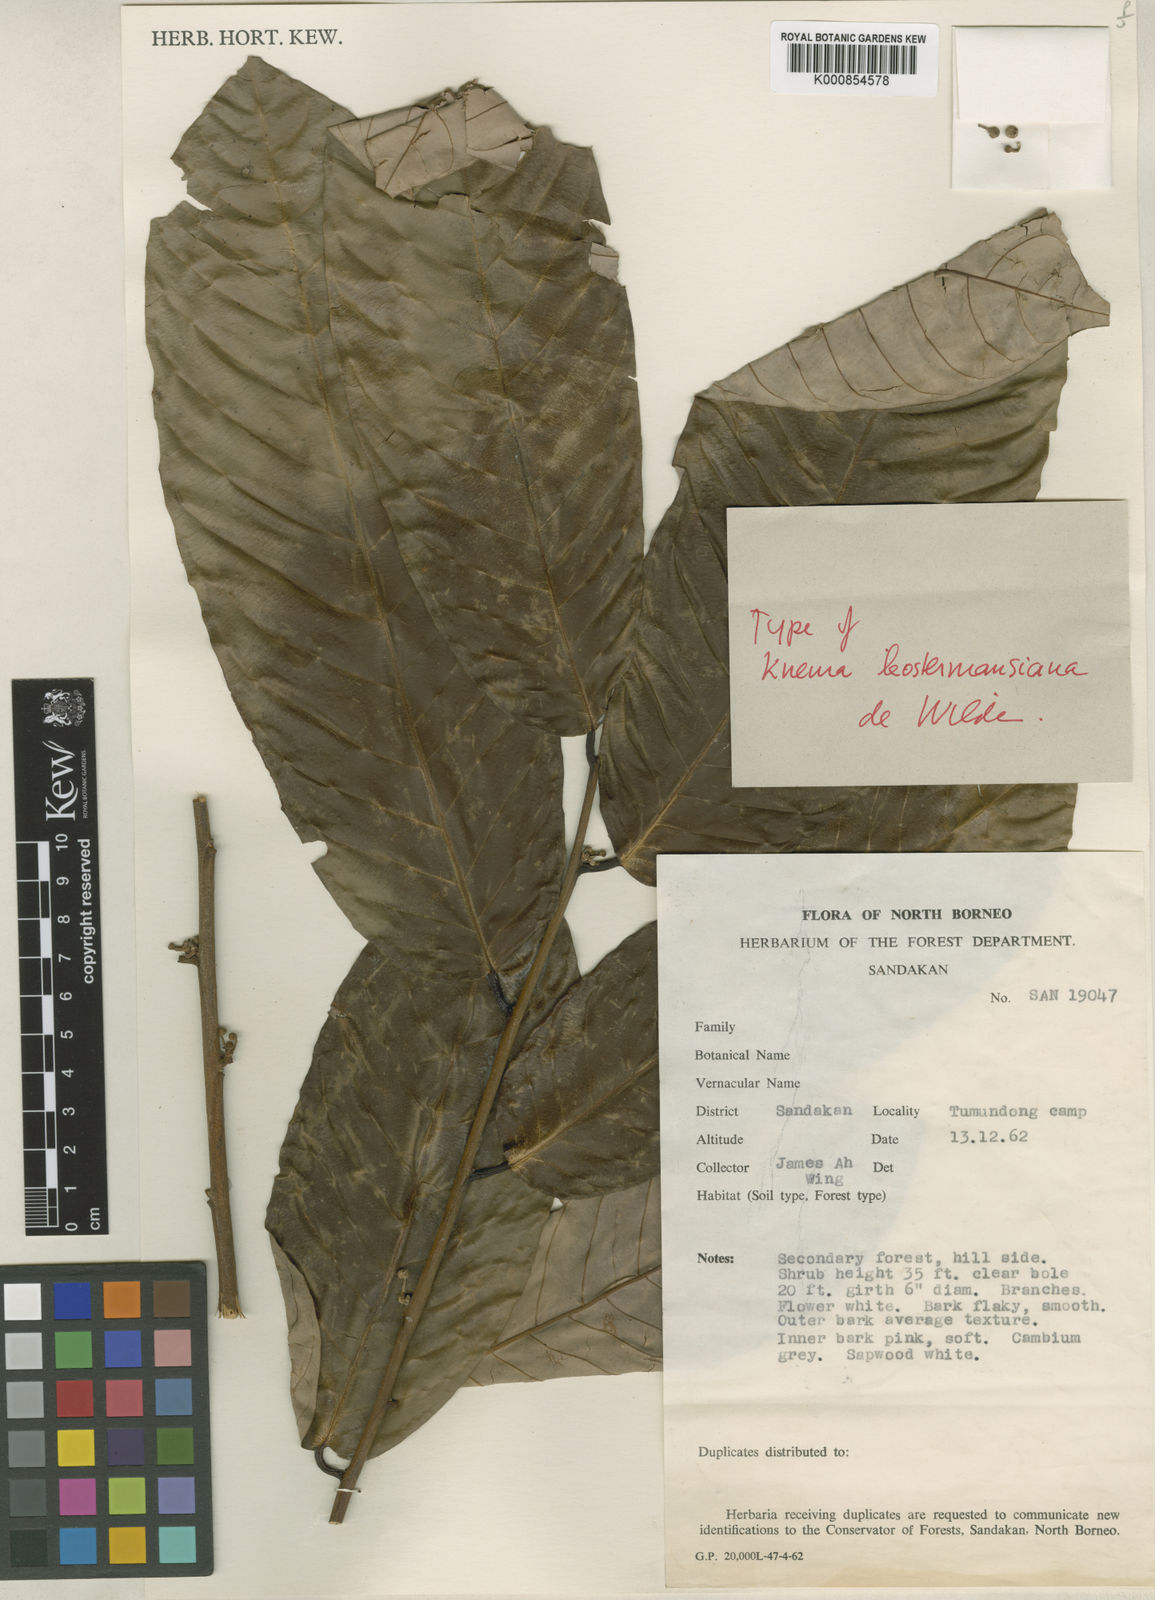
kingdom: Plantae
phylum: Tracheophyta
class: Magnoliopsida
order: Magnoliales
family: Myristicaceae
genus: Knema
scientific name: Knema kostermansiana
